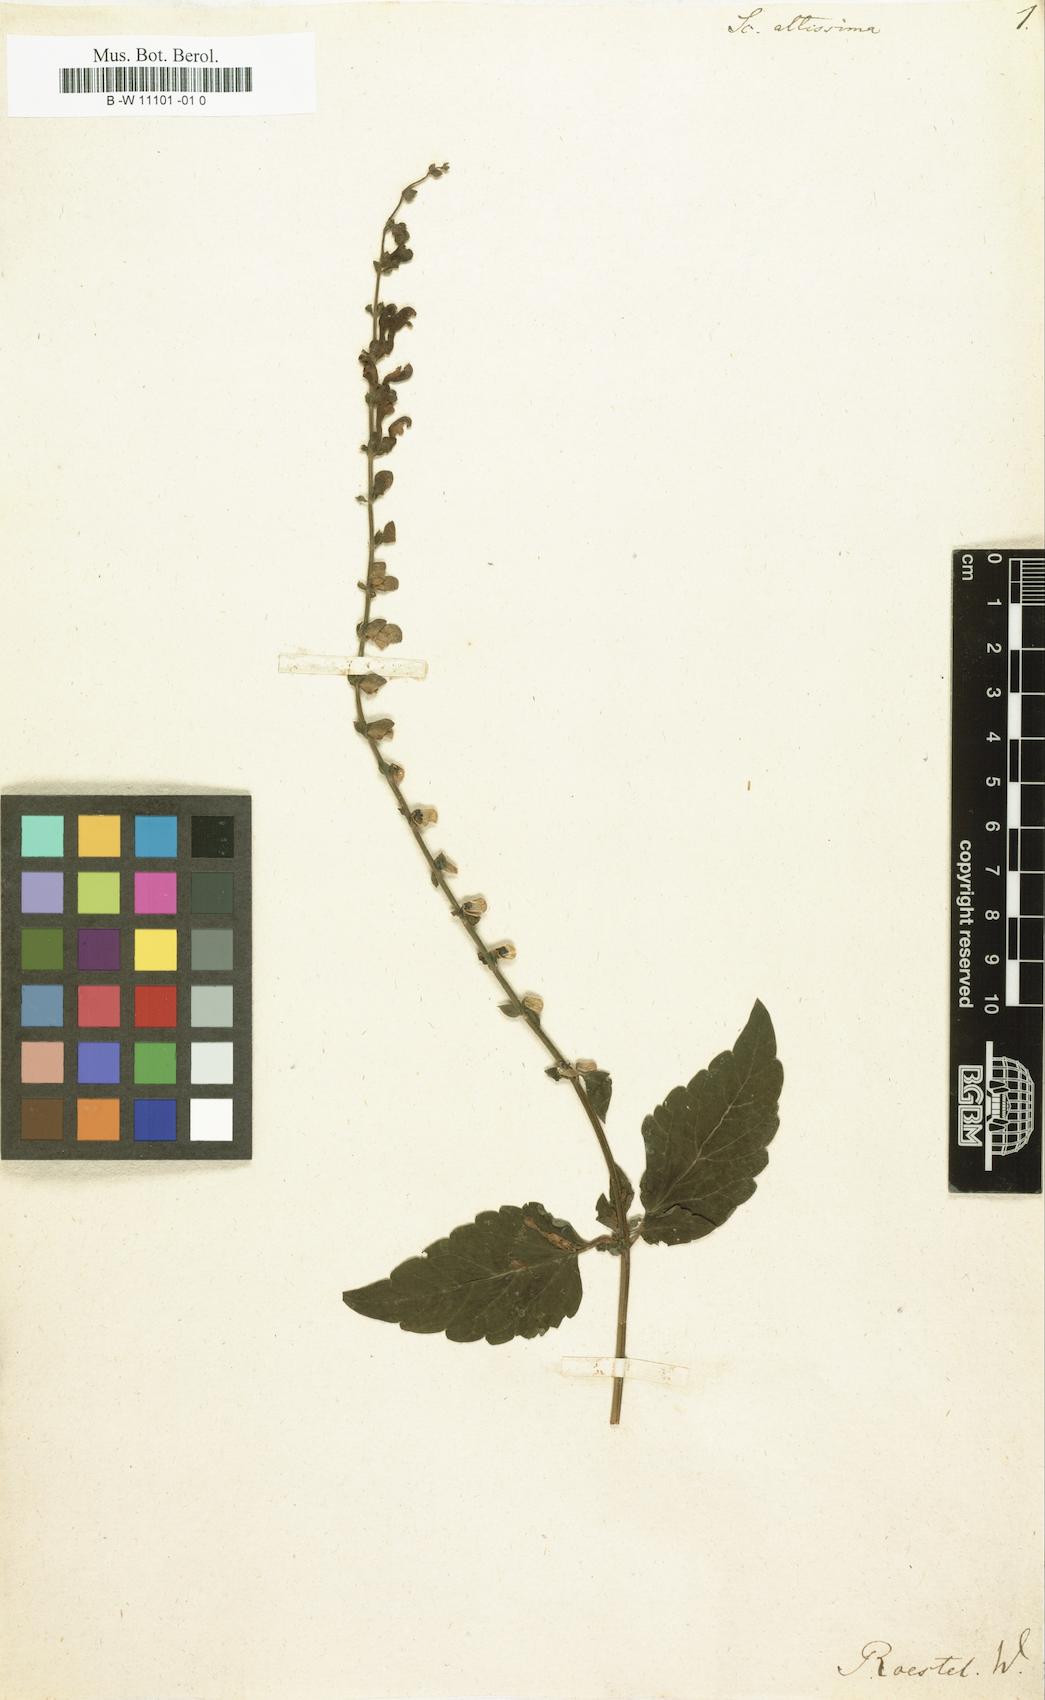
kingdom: Plantae
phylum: Tracheophyta
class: Magnoliopsida
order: Lamiales
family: Lamiaceae
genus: Scutellaria
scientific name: Scutellaria altissima
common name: Somerset skullcap
